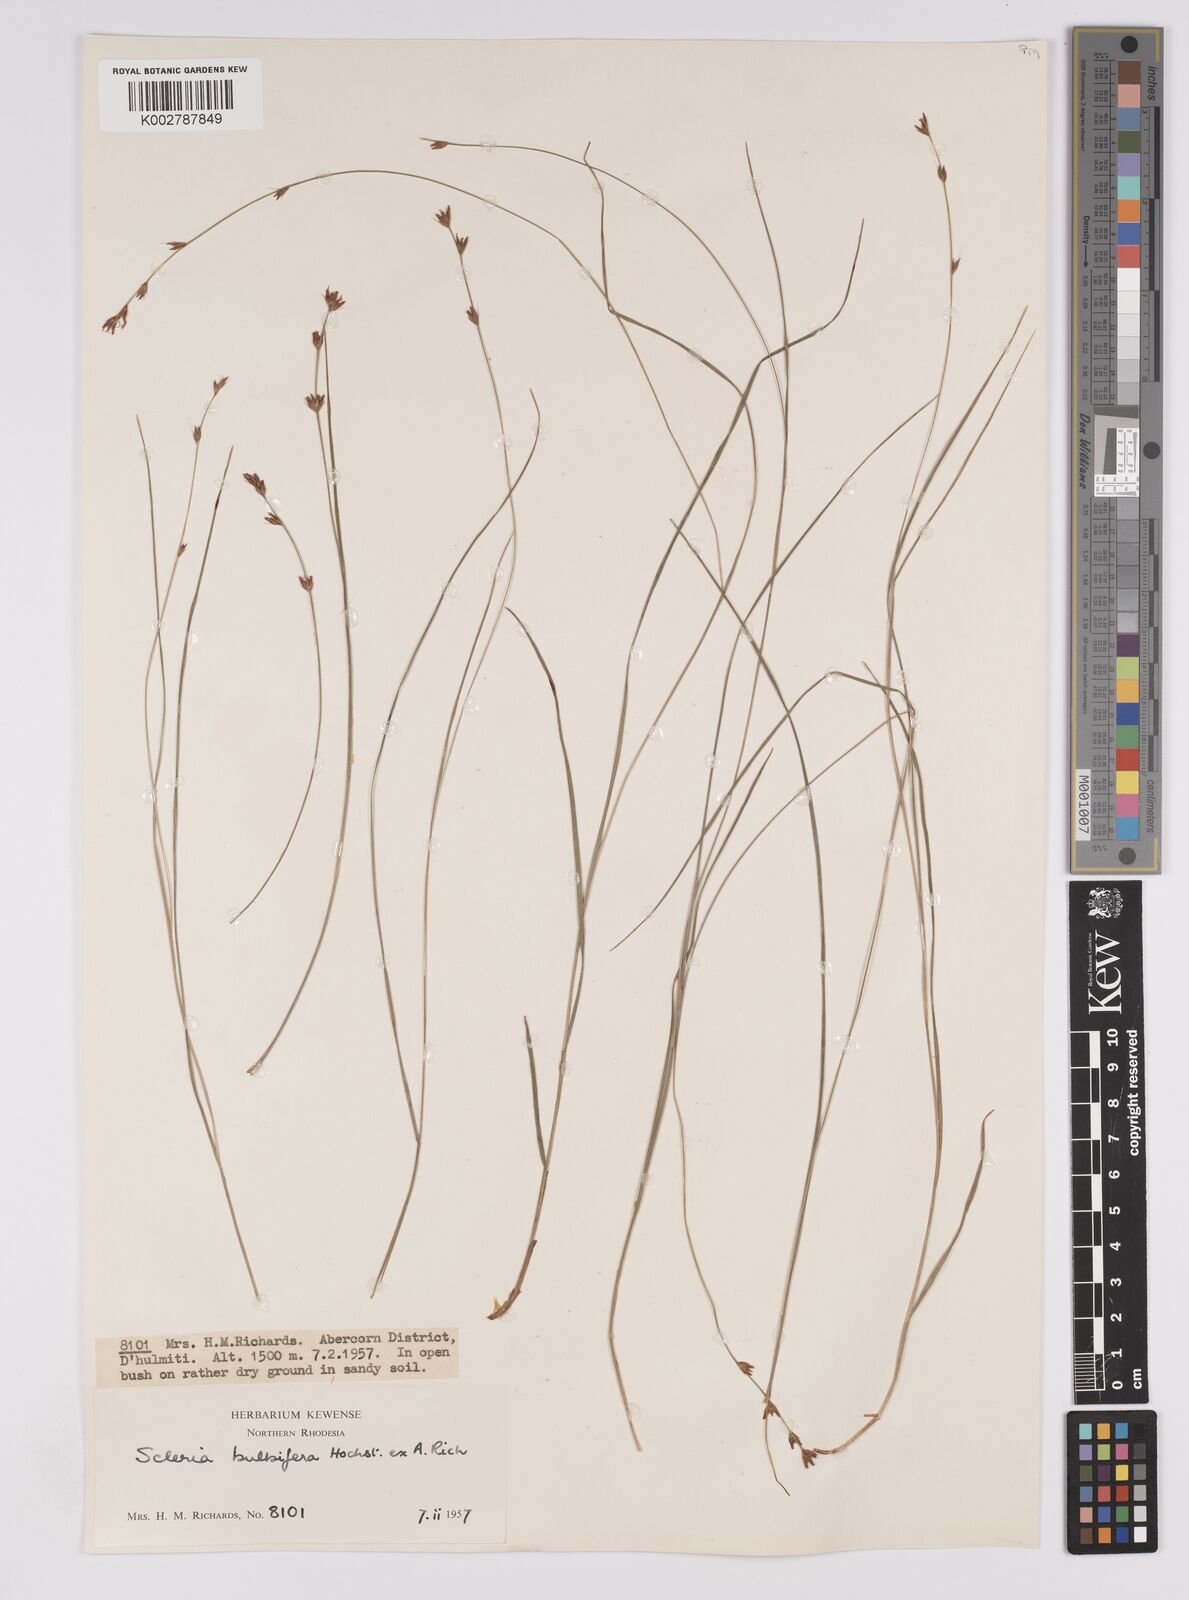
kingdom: Plantae
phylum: Tracheophyta
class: Liliopsida
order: Poales
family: Cyperaceae
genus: Scleria
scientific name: Scleria bulbifera
